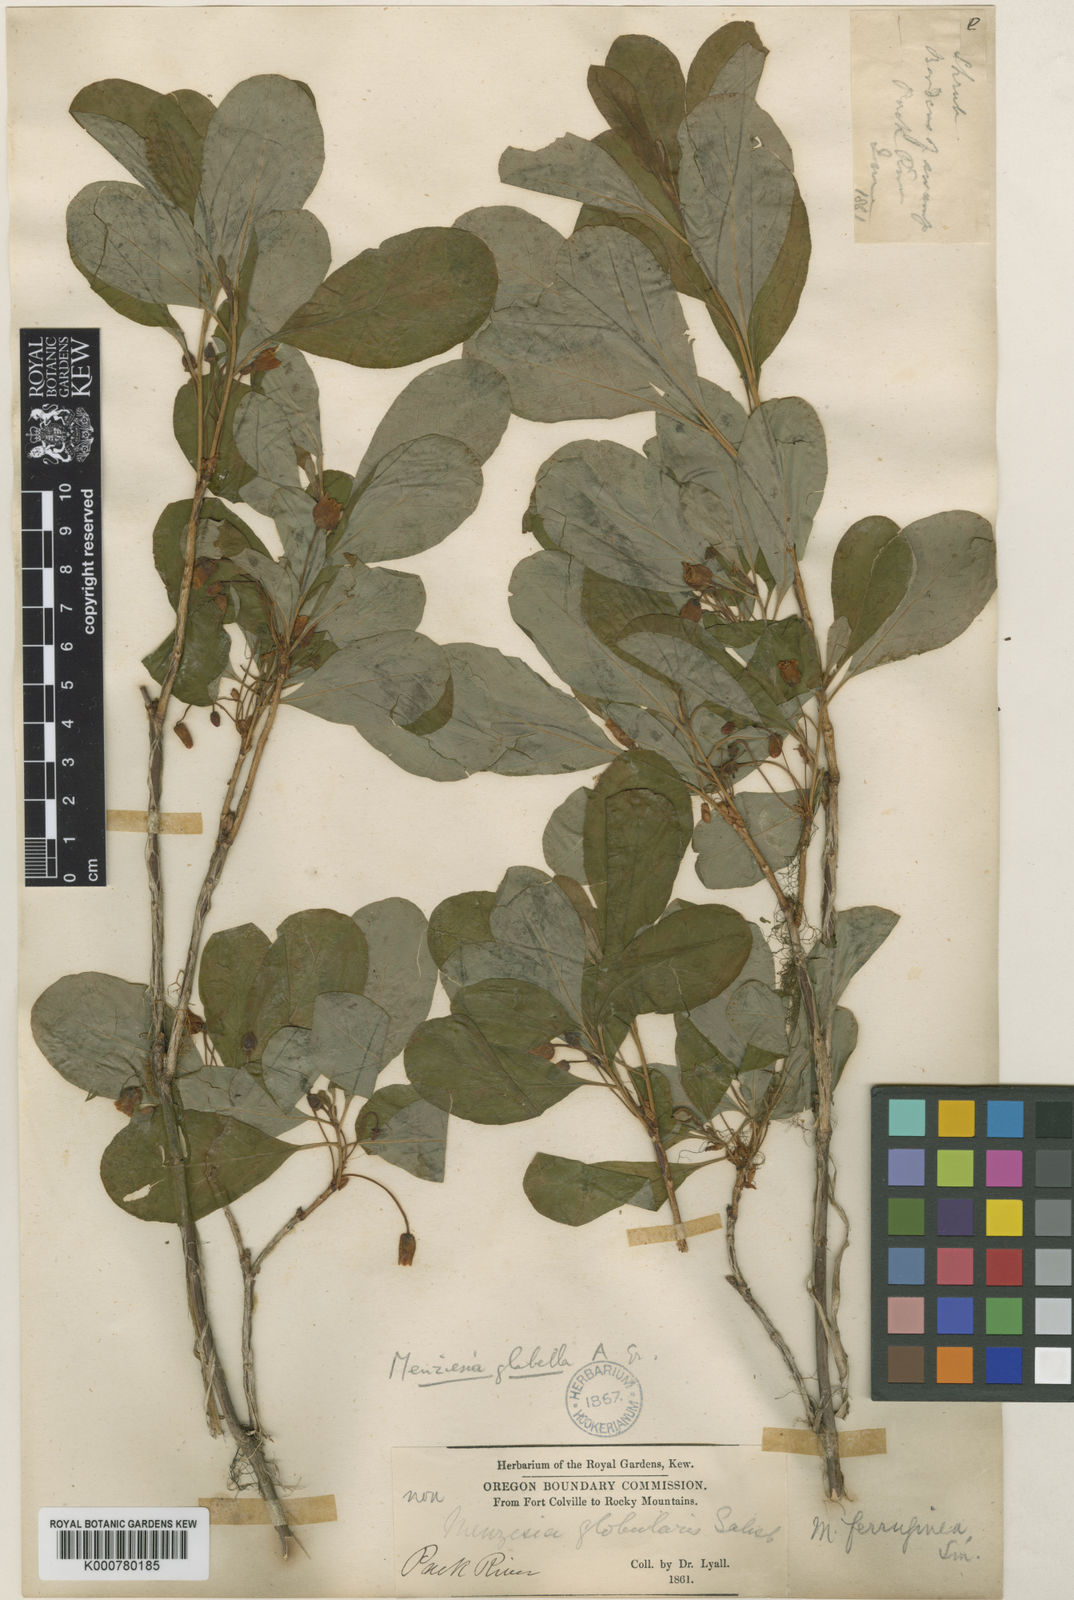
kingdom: Plantae
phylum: Tracheophyta
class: Magnoliopsida
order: Ericales
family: Ericaceae
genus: Rhododendron
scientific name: Rhododendron menziesii
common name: Pacific menziesia
